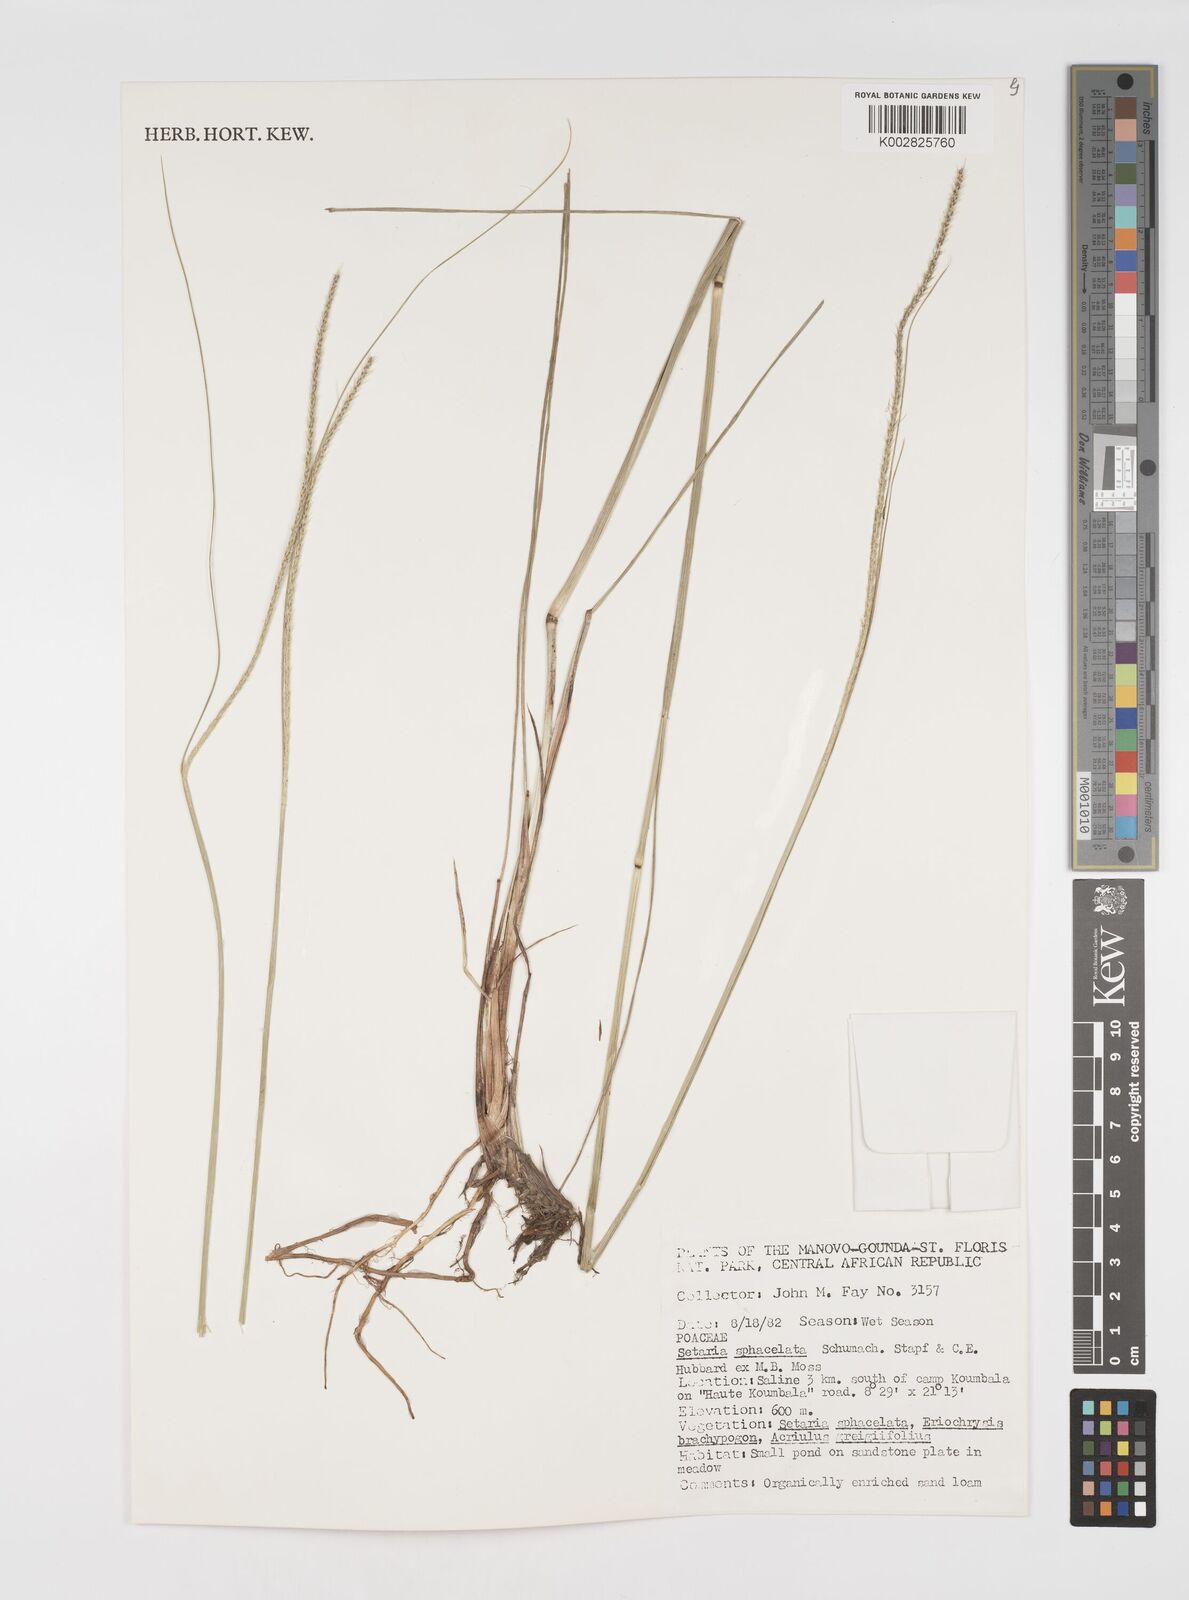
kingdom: Plantae
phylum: Tracheophyta
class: Liliopsida
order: Poales
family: Poaceae
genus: Setaria
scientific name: Setaria sphacelata
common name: African bristlegrass
